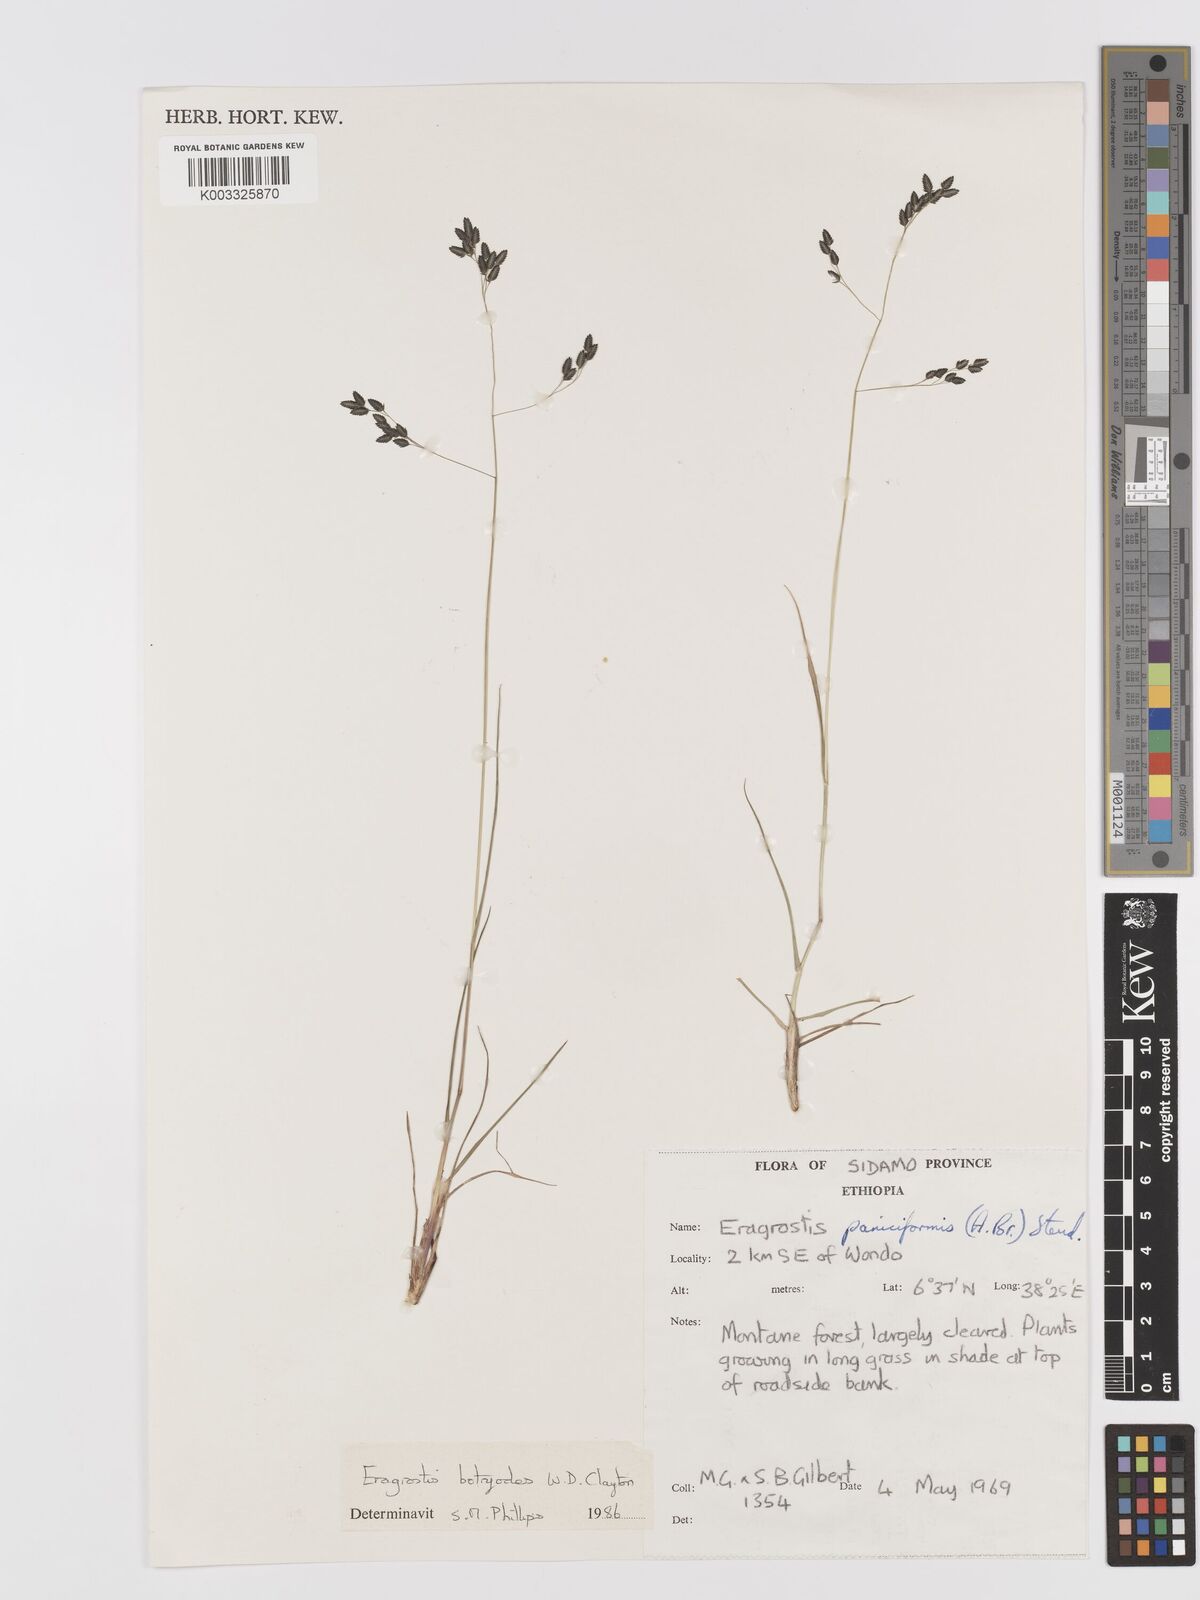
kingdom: Plantae
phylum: Tracheophyta
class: Liliopsida
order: Poales
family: Poaceae
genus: Eragrostis
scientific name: Eragrostis botryodes
